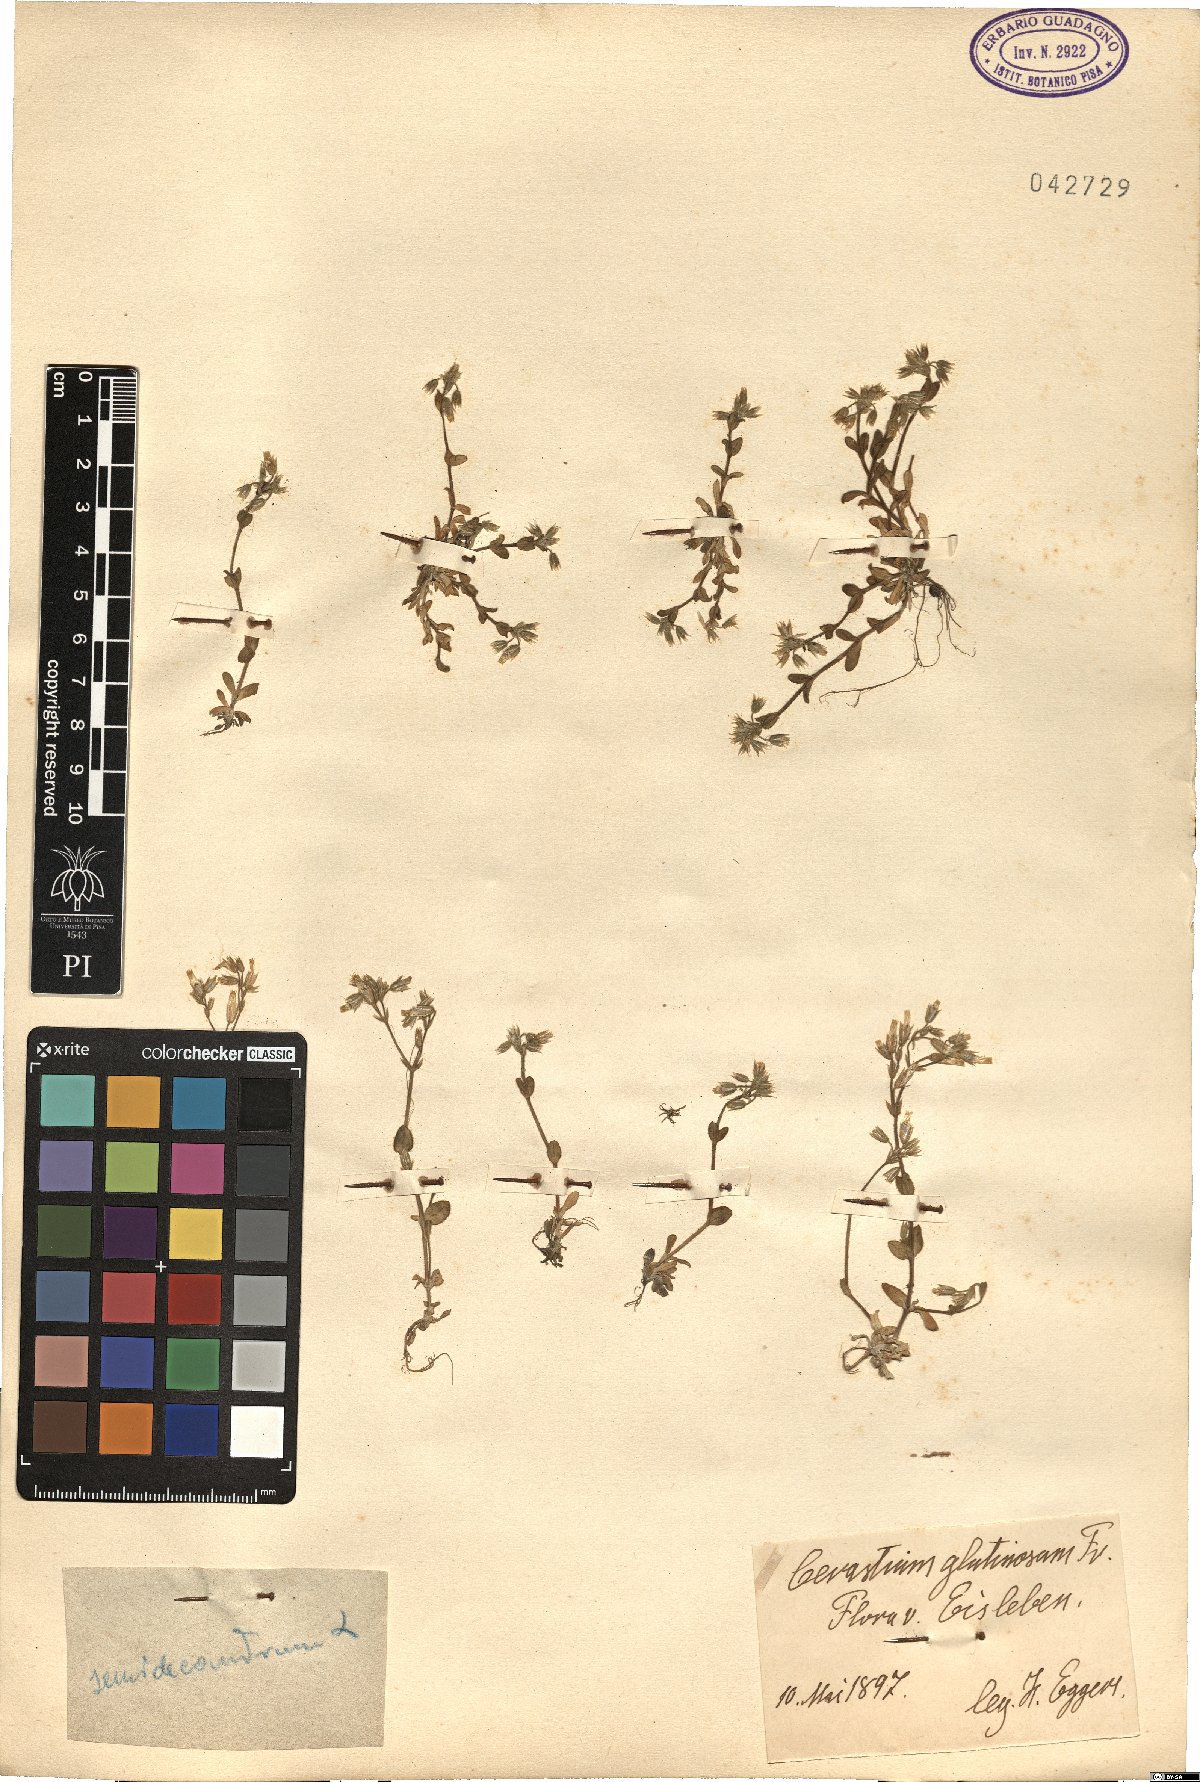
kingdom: Plantae
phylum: Tracheophyta
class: Magnoliopsida
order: Caryophyllales
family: Caryophyllaceae
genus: Cerastium
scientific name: Cerastium semidecandrum
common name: Little mouse-ear
